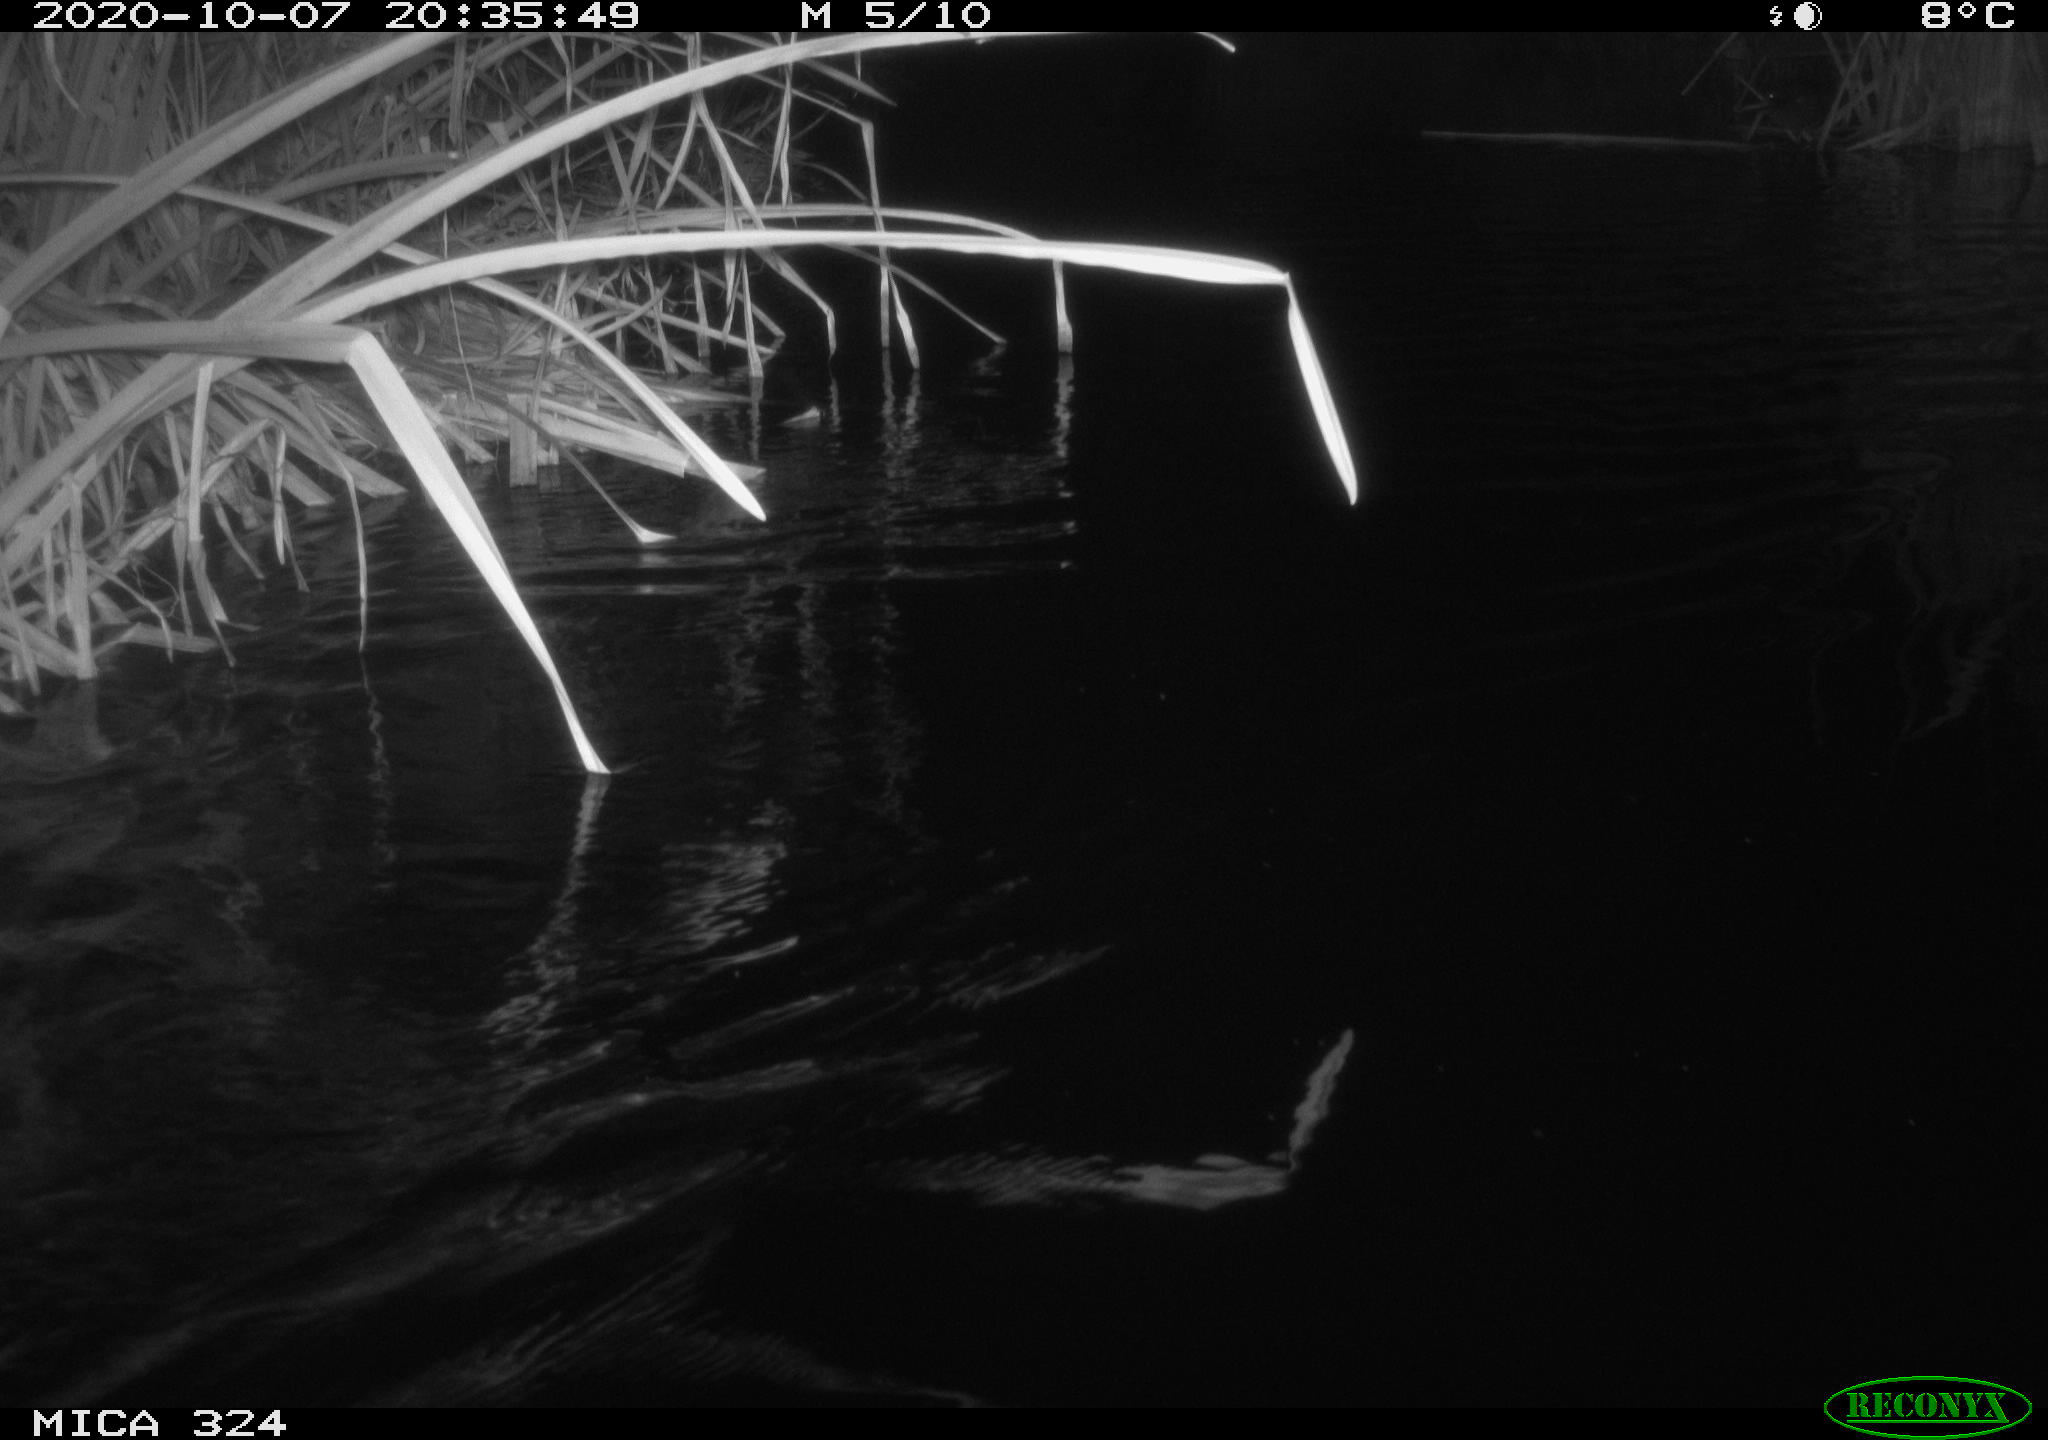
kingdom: Animalia
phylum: Chordata
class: Mammalia
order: Rodentia
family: Cricetidae
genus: Ondatra
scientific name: Ondatra zibethicus
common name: Muskrat
